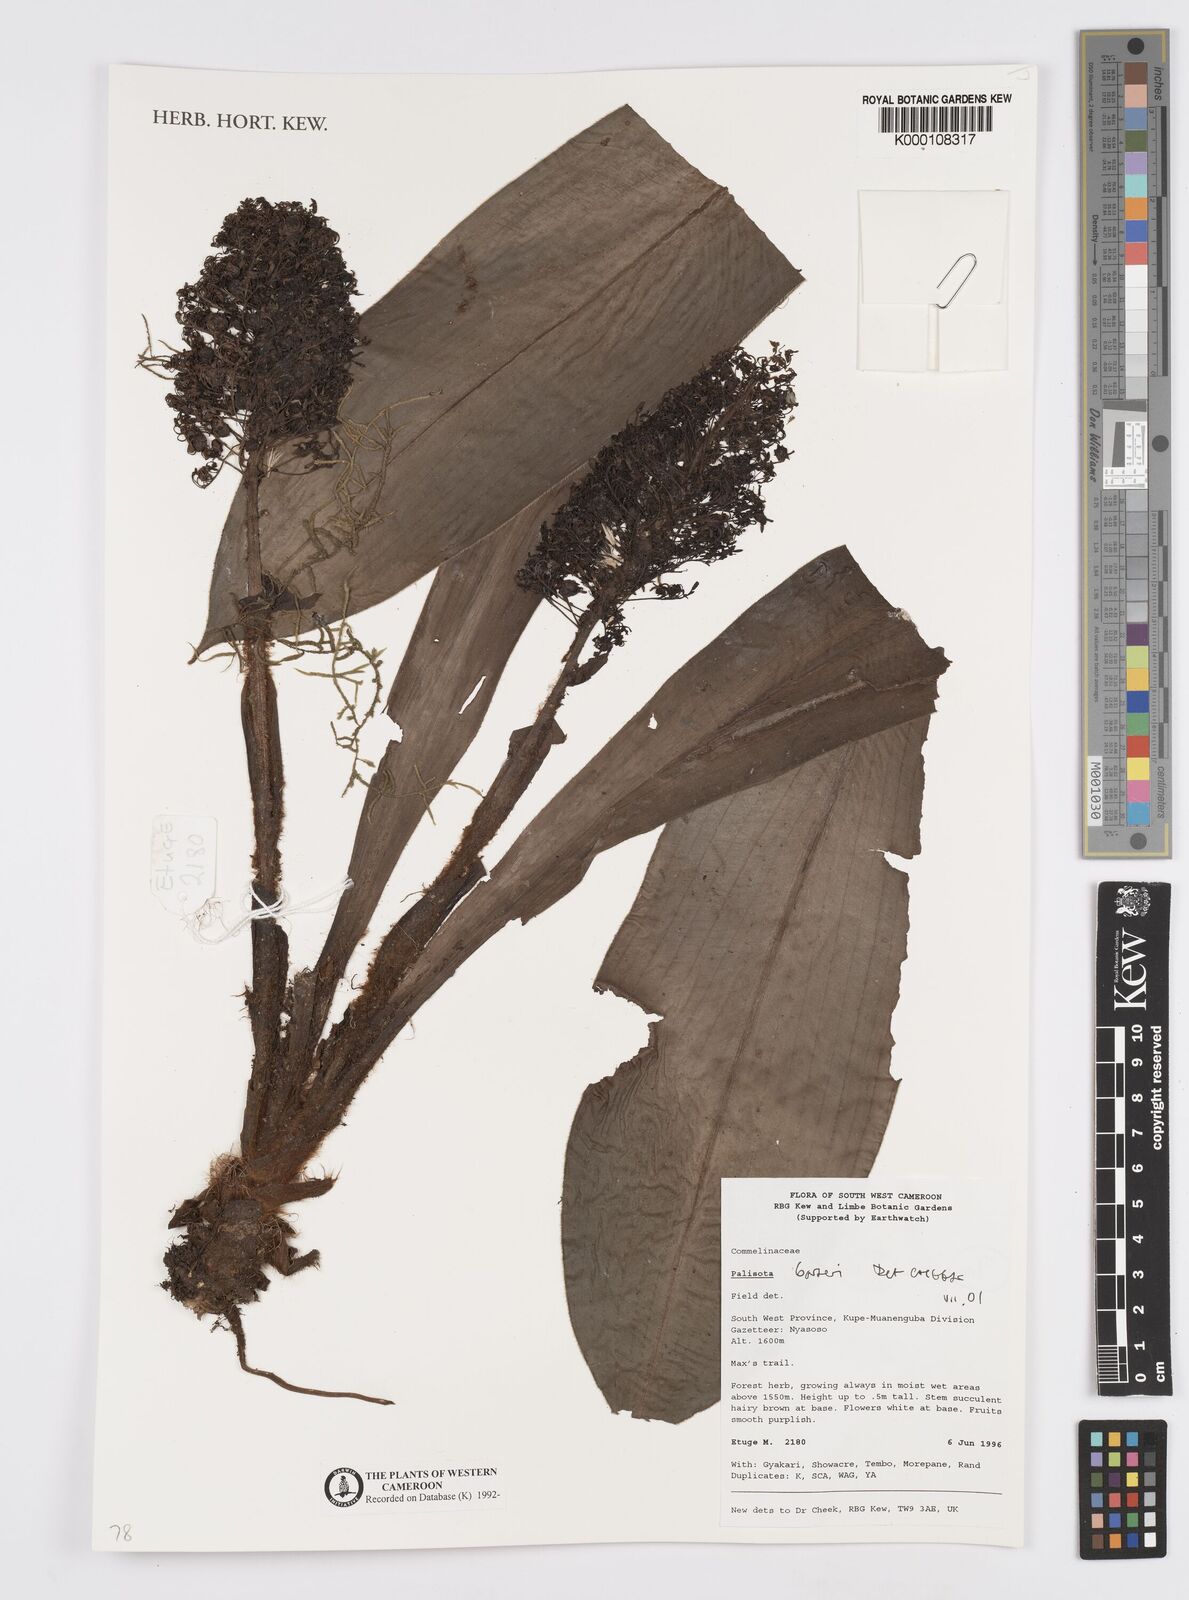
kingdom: Plantae
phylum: Tracheophyta
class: Liliopsida
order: Commelinales
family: Commelinaceae
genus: Palisota
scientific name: Palisota barteri
